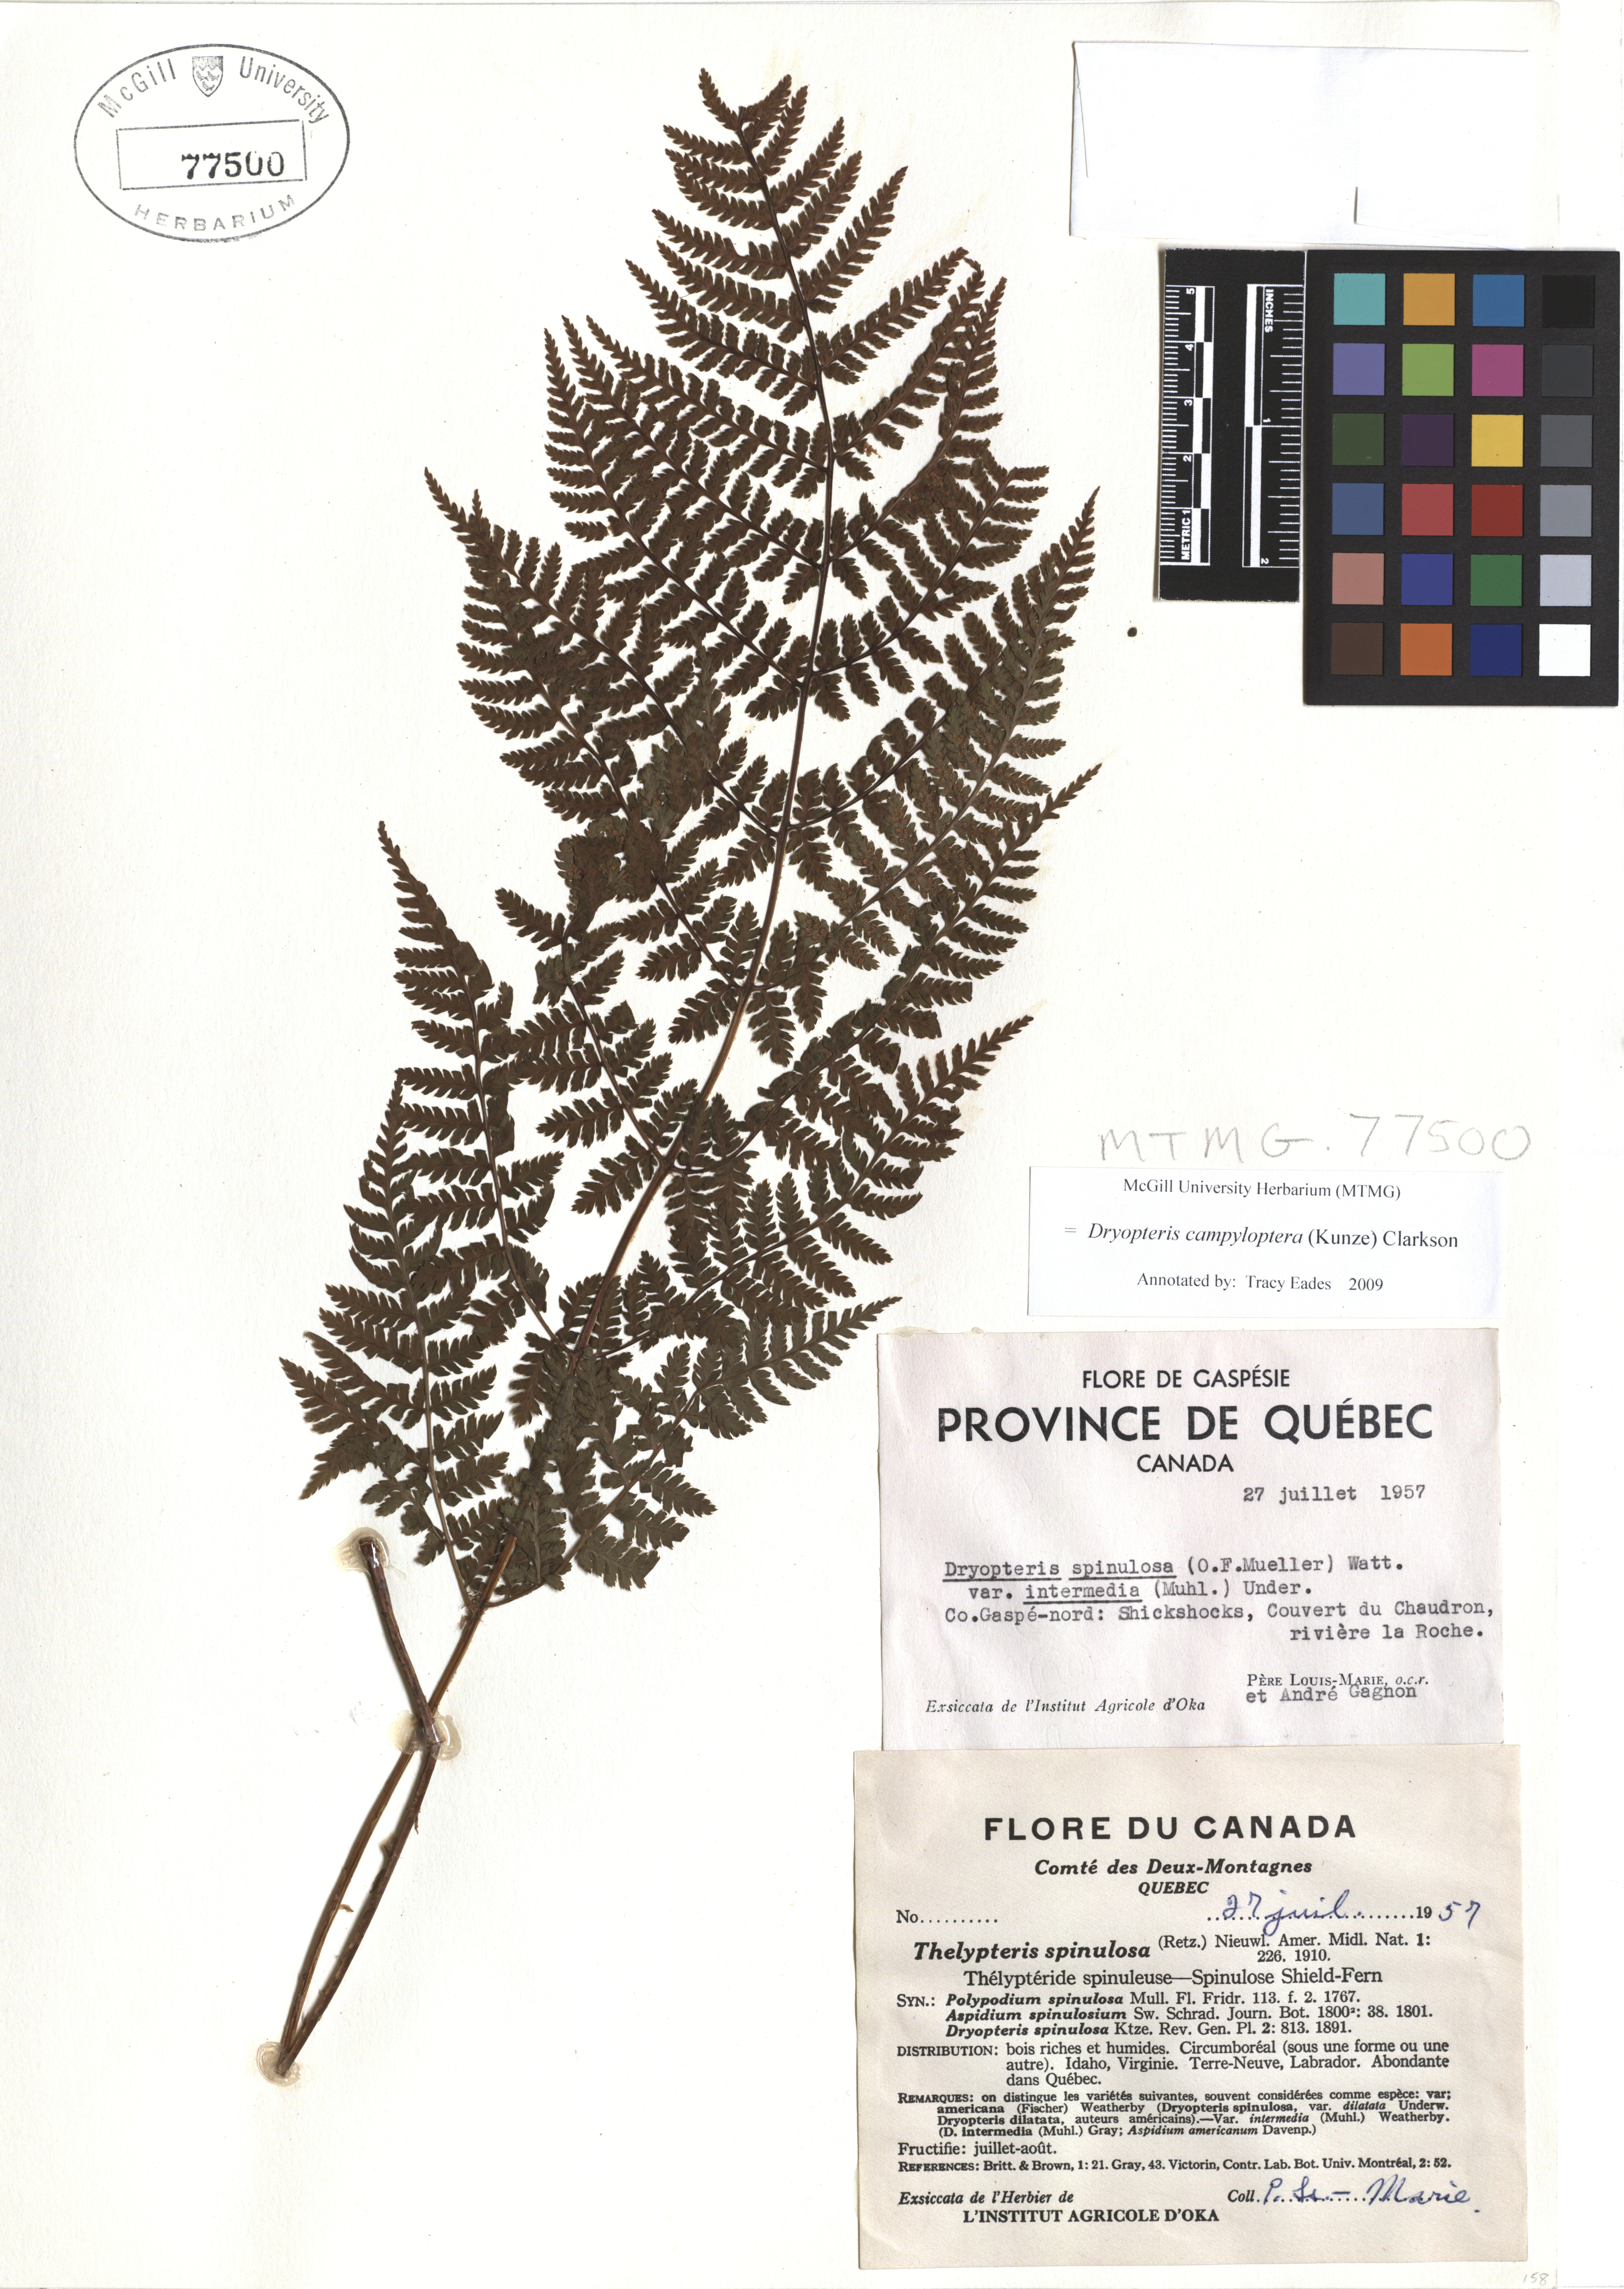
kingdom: Plantae
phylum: Tracheophyta
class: Polypodiopsida
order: Polypodiales
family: Dryopteridaceae
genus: Dryopteris
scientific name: Dryopteris campyloptera
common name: Mountain wood fern
